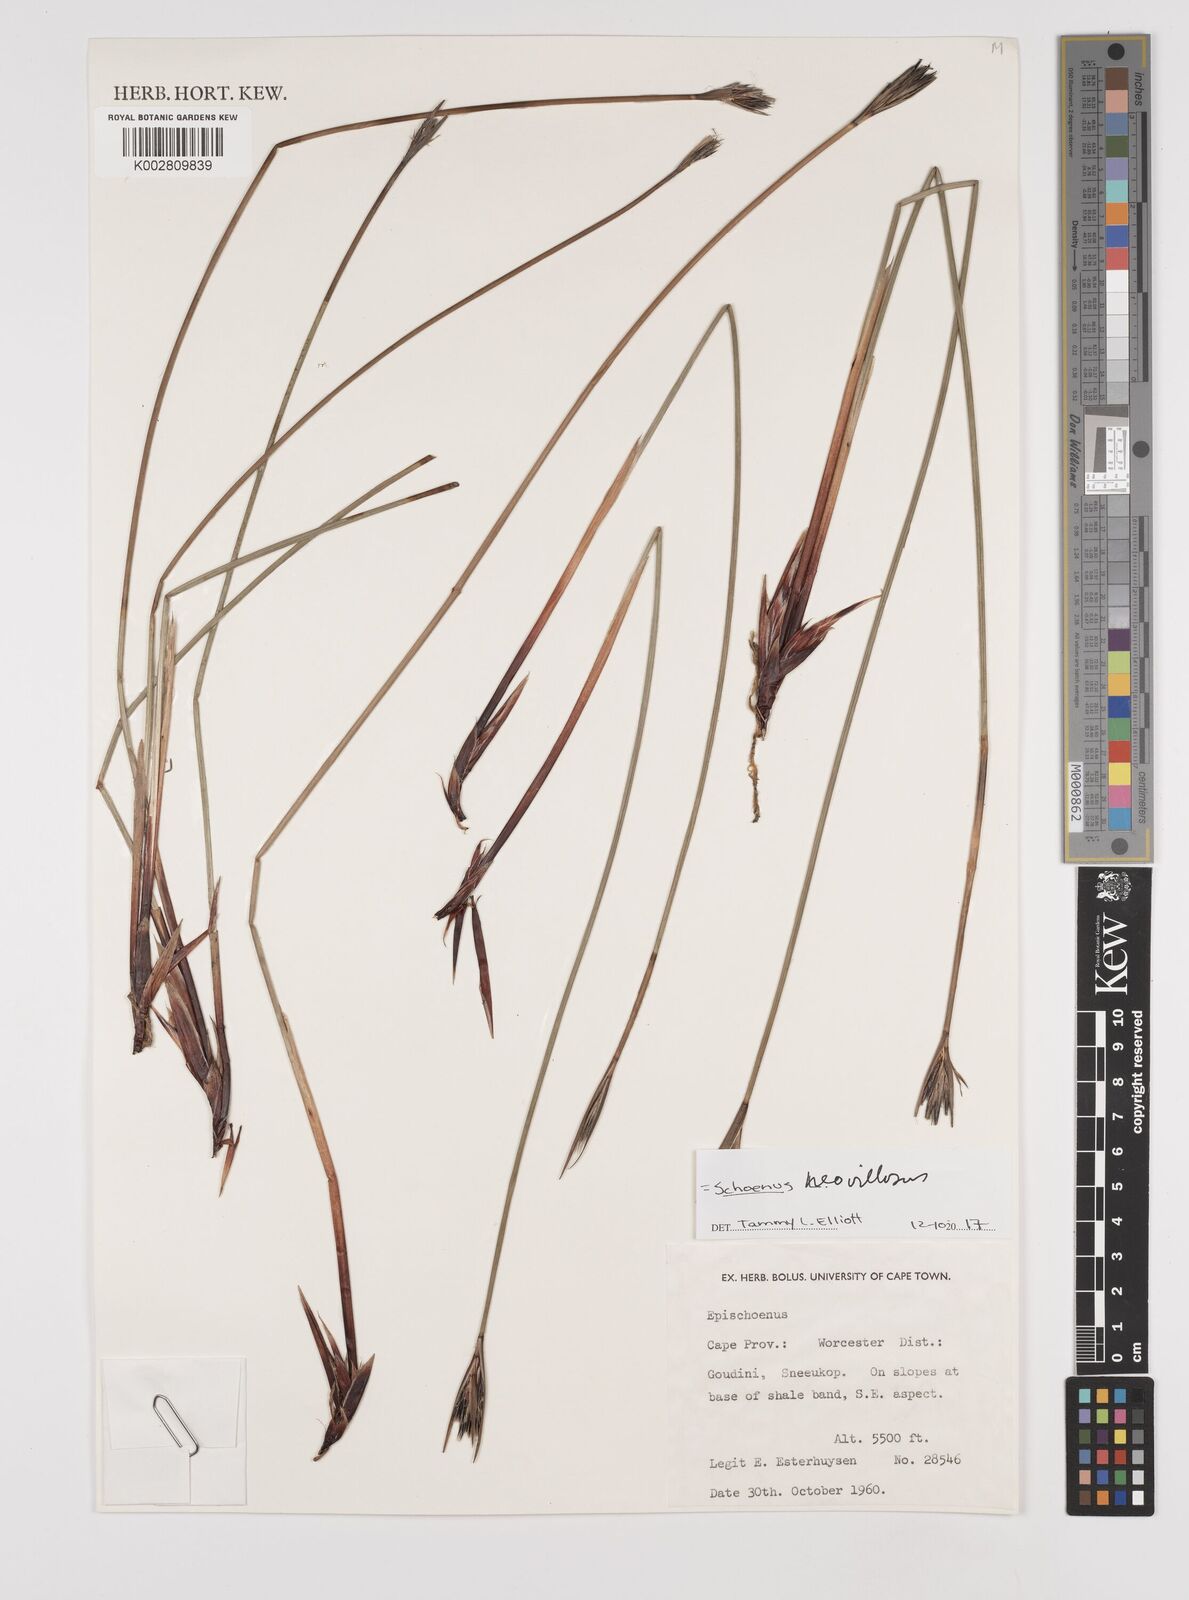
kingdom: Plantae
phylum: Tracheophyta
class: Liliopsida
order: Poales
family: Cyperaceae
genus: Schoenus
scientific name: Schoenus quadrangularis
